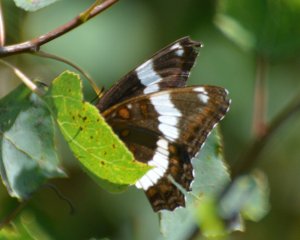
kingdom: Animalia
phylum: Arthropoda
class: Insecta
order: Lepidoptera
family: Nymphalidae
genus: Limenitis
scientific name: Limenitis arthemis
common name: Red-spotted Admiral
